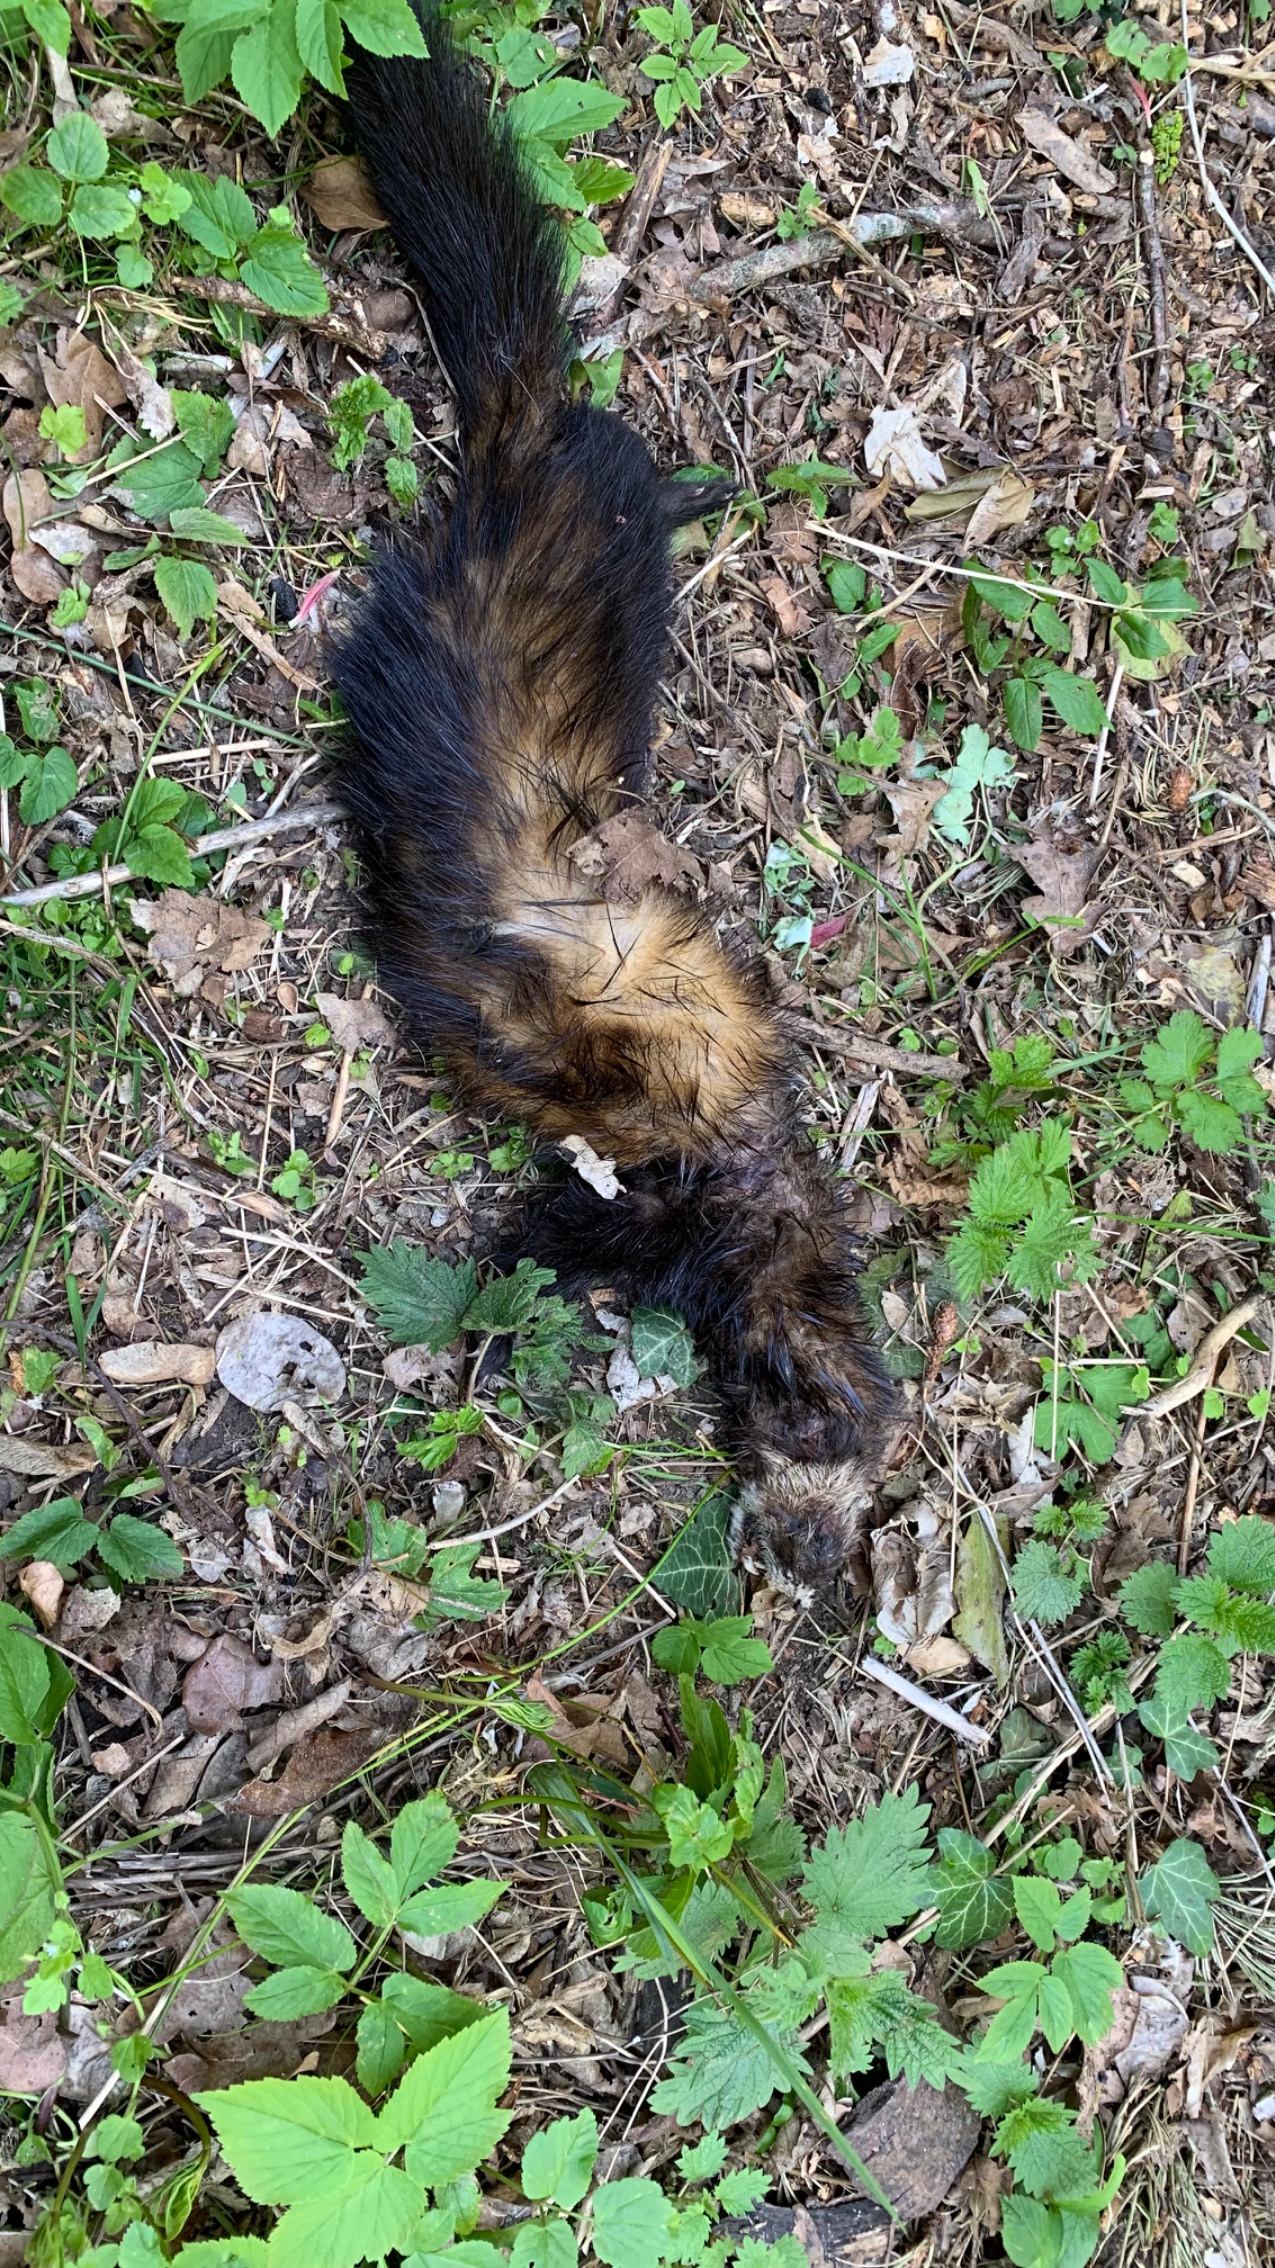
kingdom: Animalia
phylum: Chordata
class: Mammalia
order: Carnivora
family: Mustelidae
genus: Mustela
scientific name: Mustela putorius
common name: Ilder
